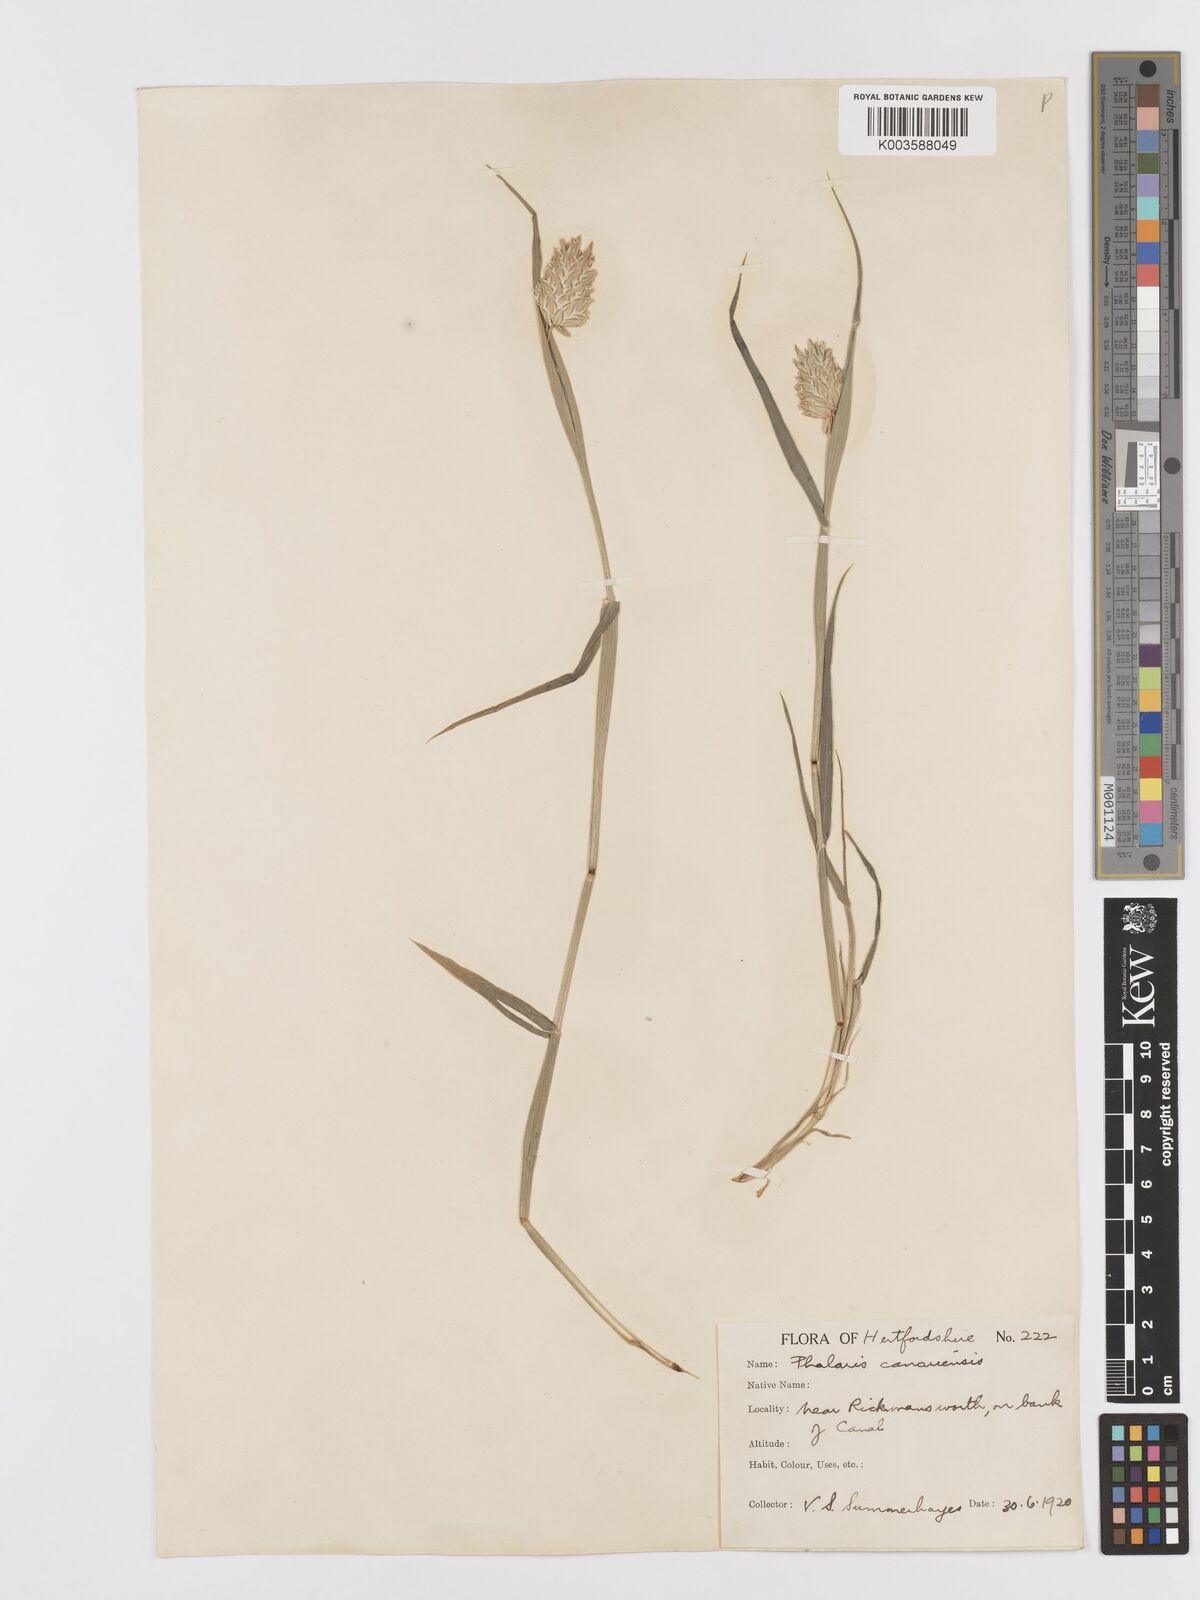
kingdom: Plantae
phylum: Tracheophyta
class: Liliopsida
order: Poales
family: Poaceae
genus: Phalaris
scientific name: Phalaris canariensis
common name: Annual canarygrass
